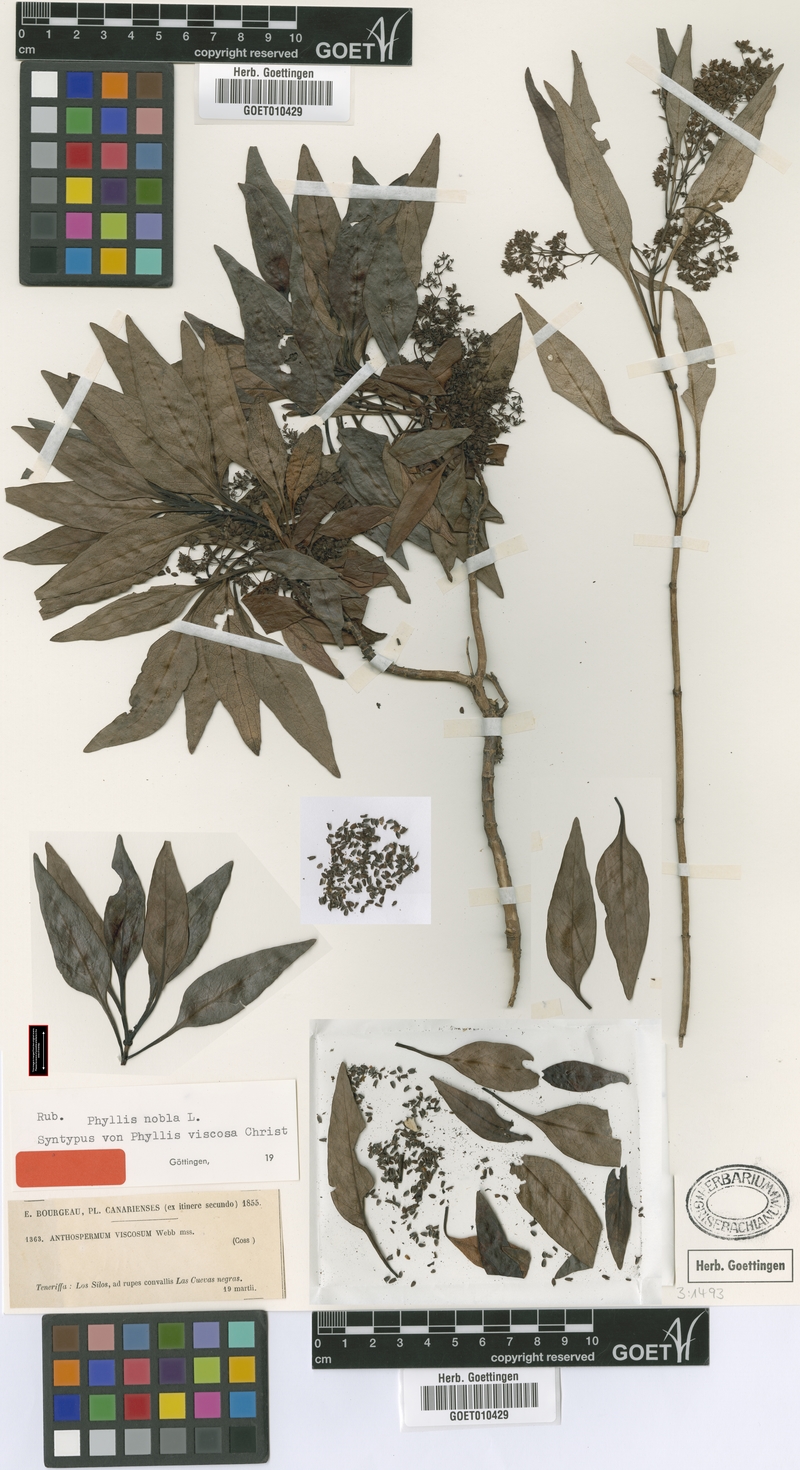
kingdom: Plantae
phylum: Tracheophyta
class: Magnoliopsida
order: Gentianales
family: Rubiaceae
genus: Phyllis
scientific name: Phyllis nobla
